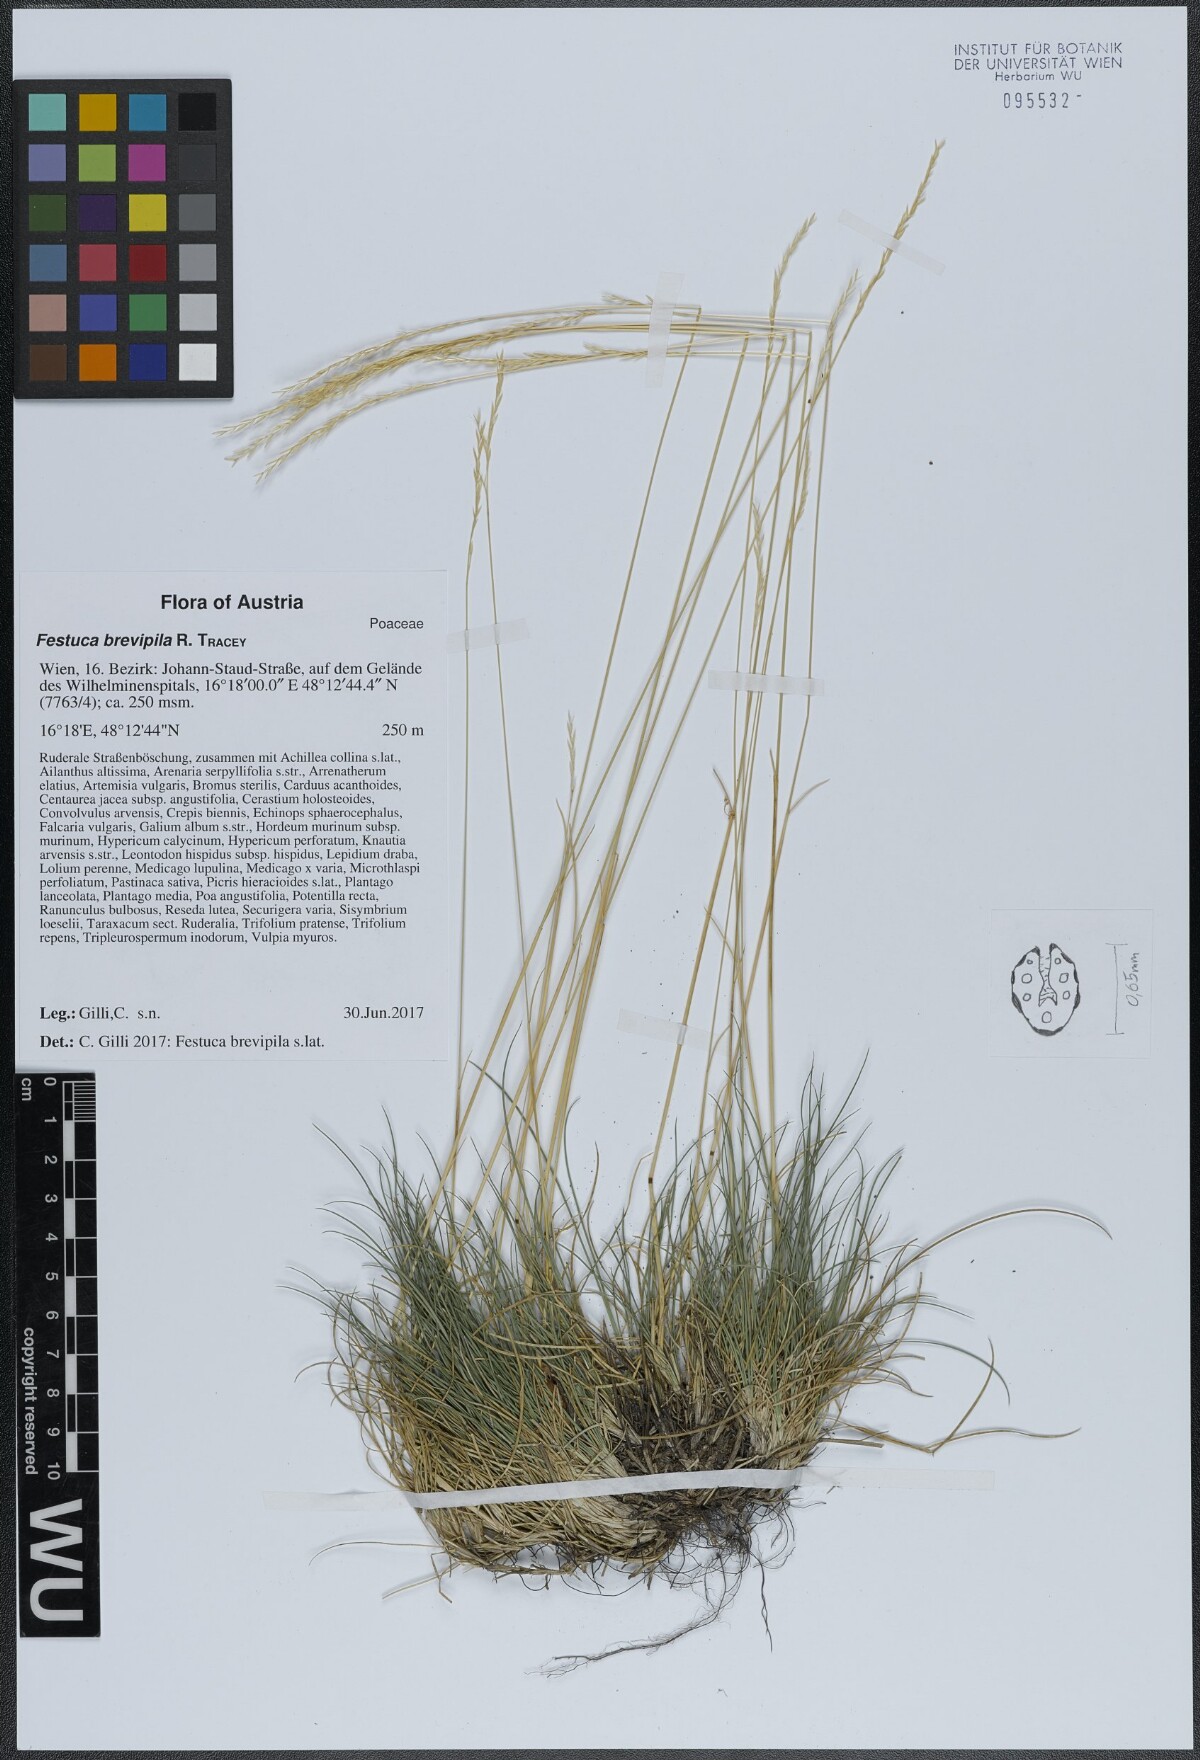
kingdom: Plantae
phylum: Tracheophyta
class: Liliopsida
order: Poales
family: Poaceae
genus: Festuca
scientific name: Festuca trachyphylla
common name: Hard fescue
